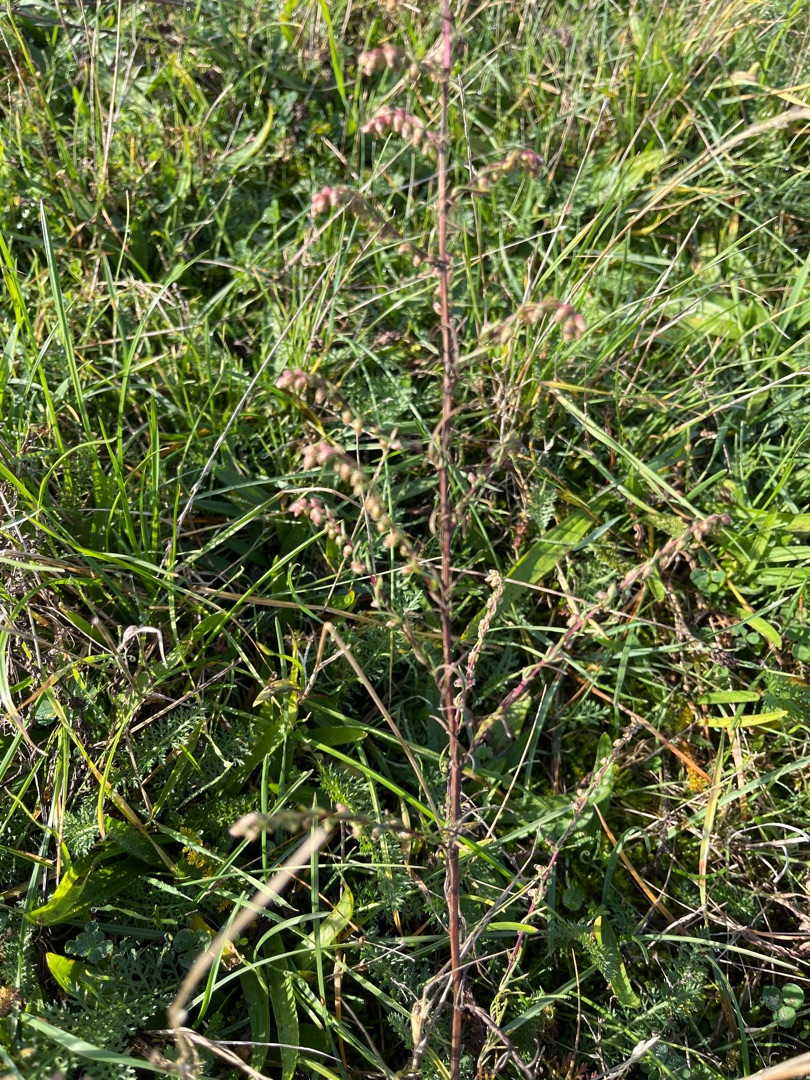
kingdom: Plantae
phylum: Tracheophyta
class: Magnoliopsida
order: Asterales
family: Asteraceae
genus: Artemisia
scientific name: Artemisia campestris
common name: Mark-bynke
